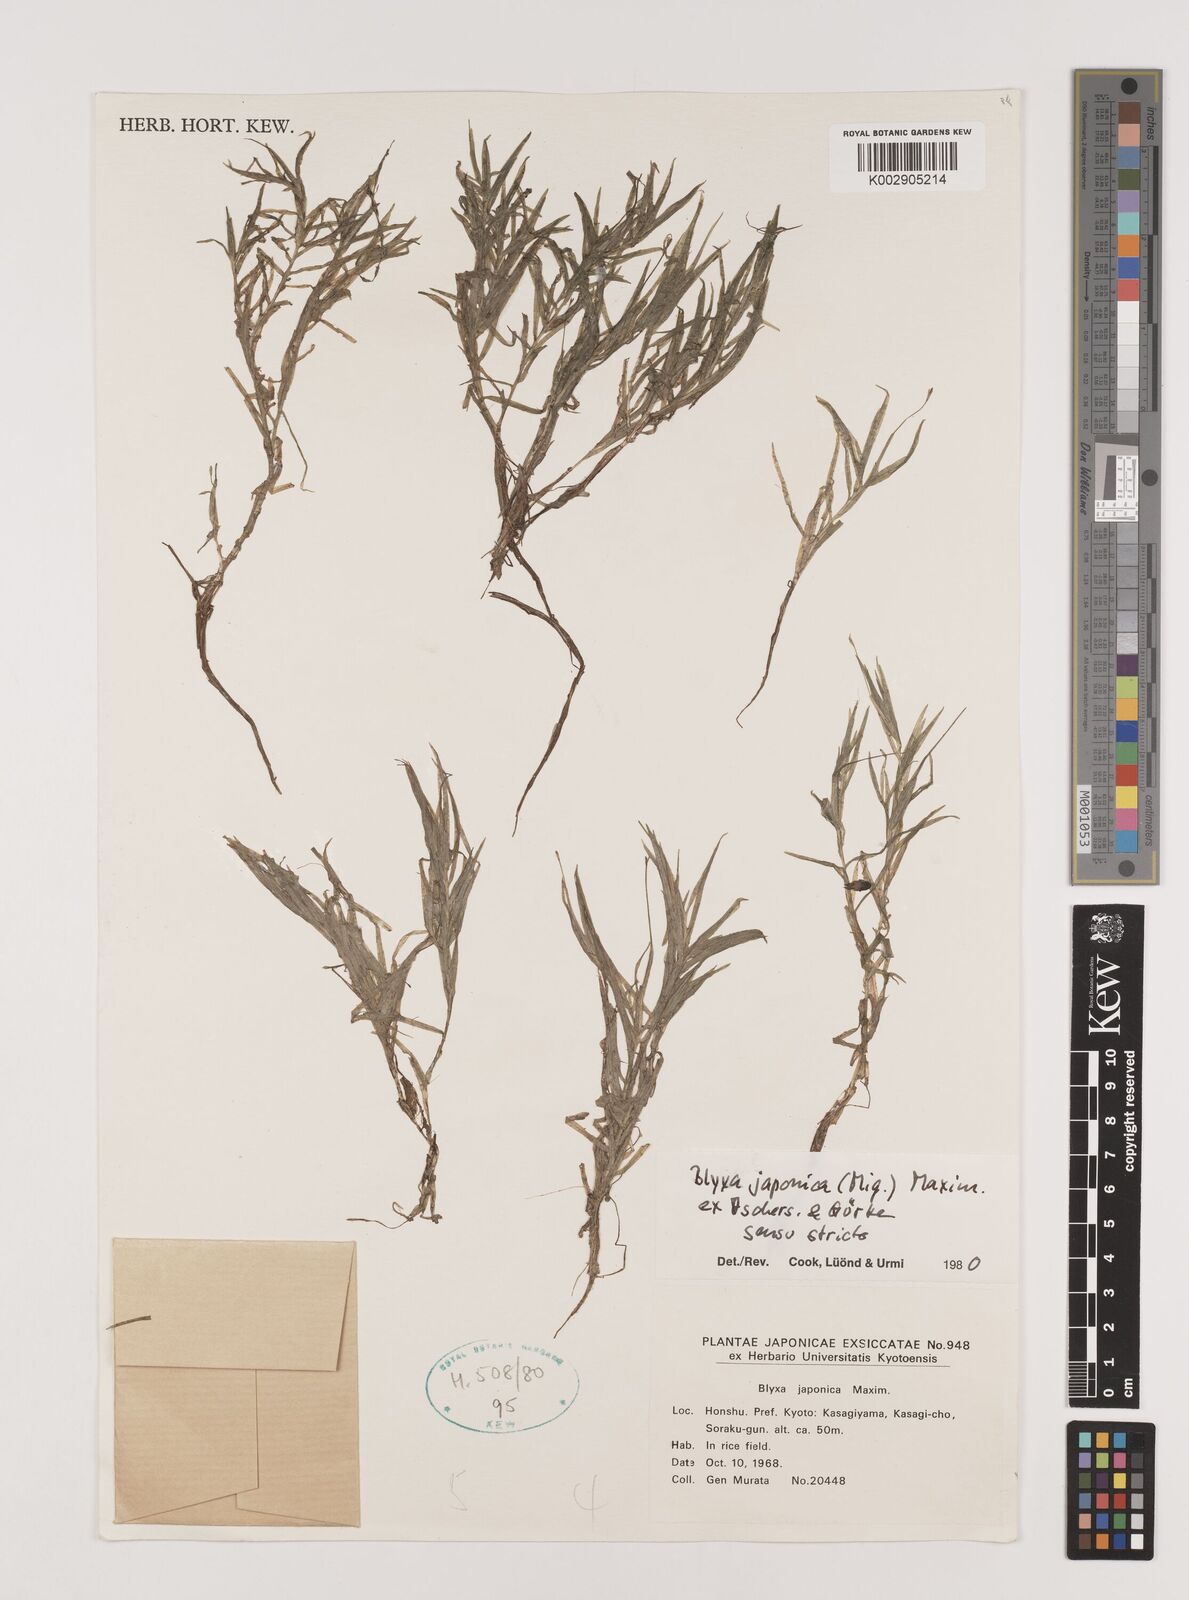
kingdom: Plantae
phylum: Tracheophyta
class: Liliopsida
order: Alismatales
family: Hydrocharitaceae
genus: Blyxa
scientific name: Blyxa japonica
